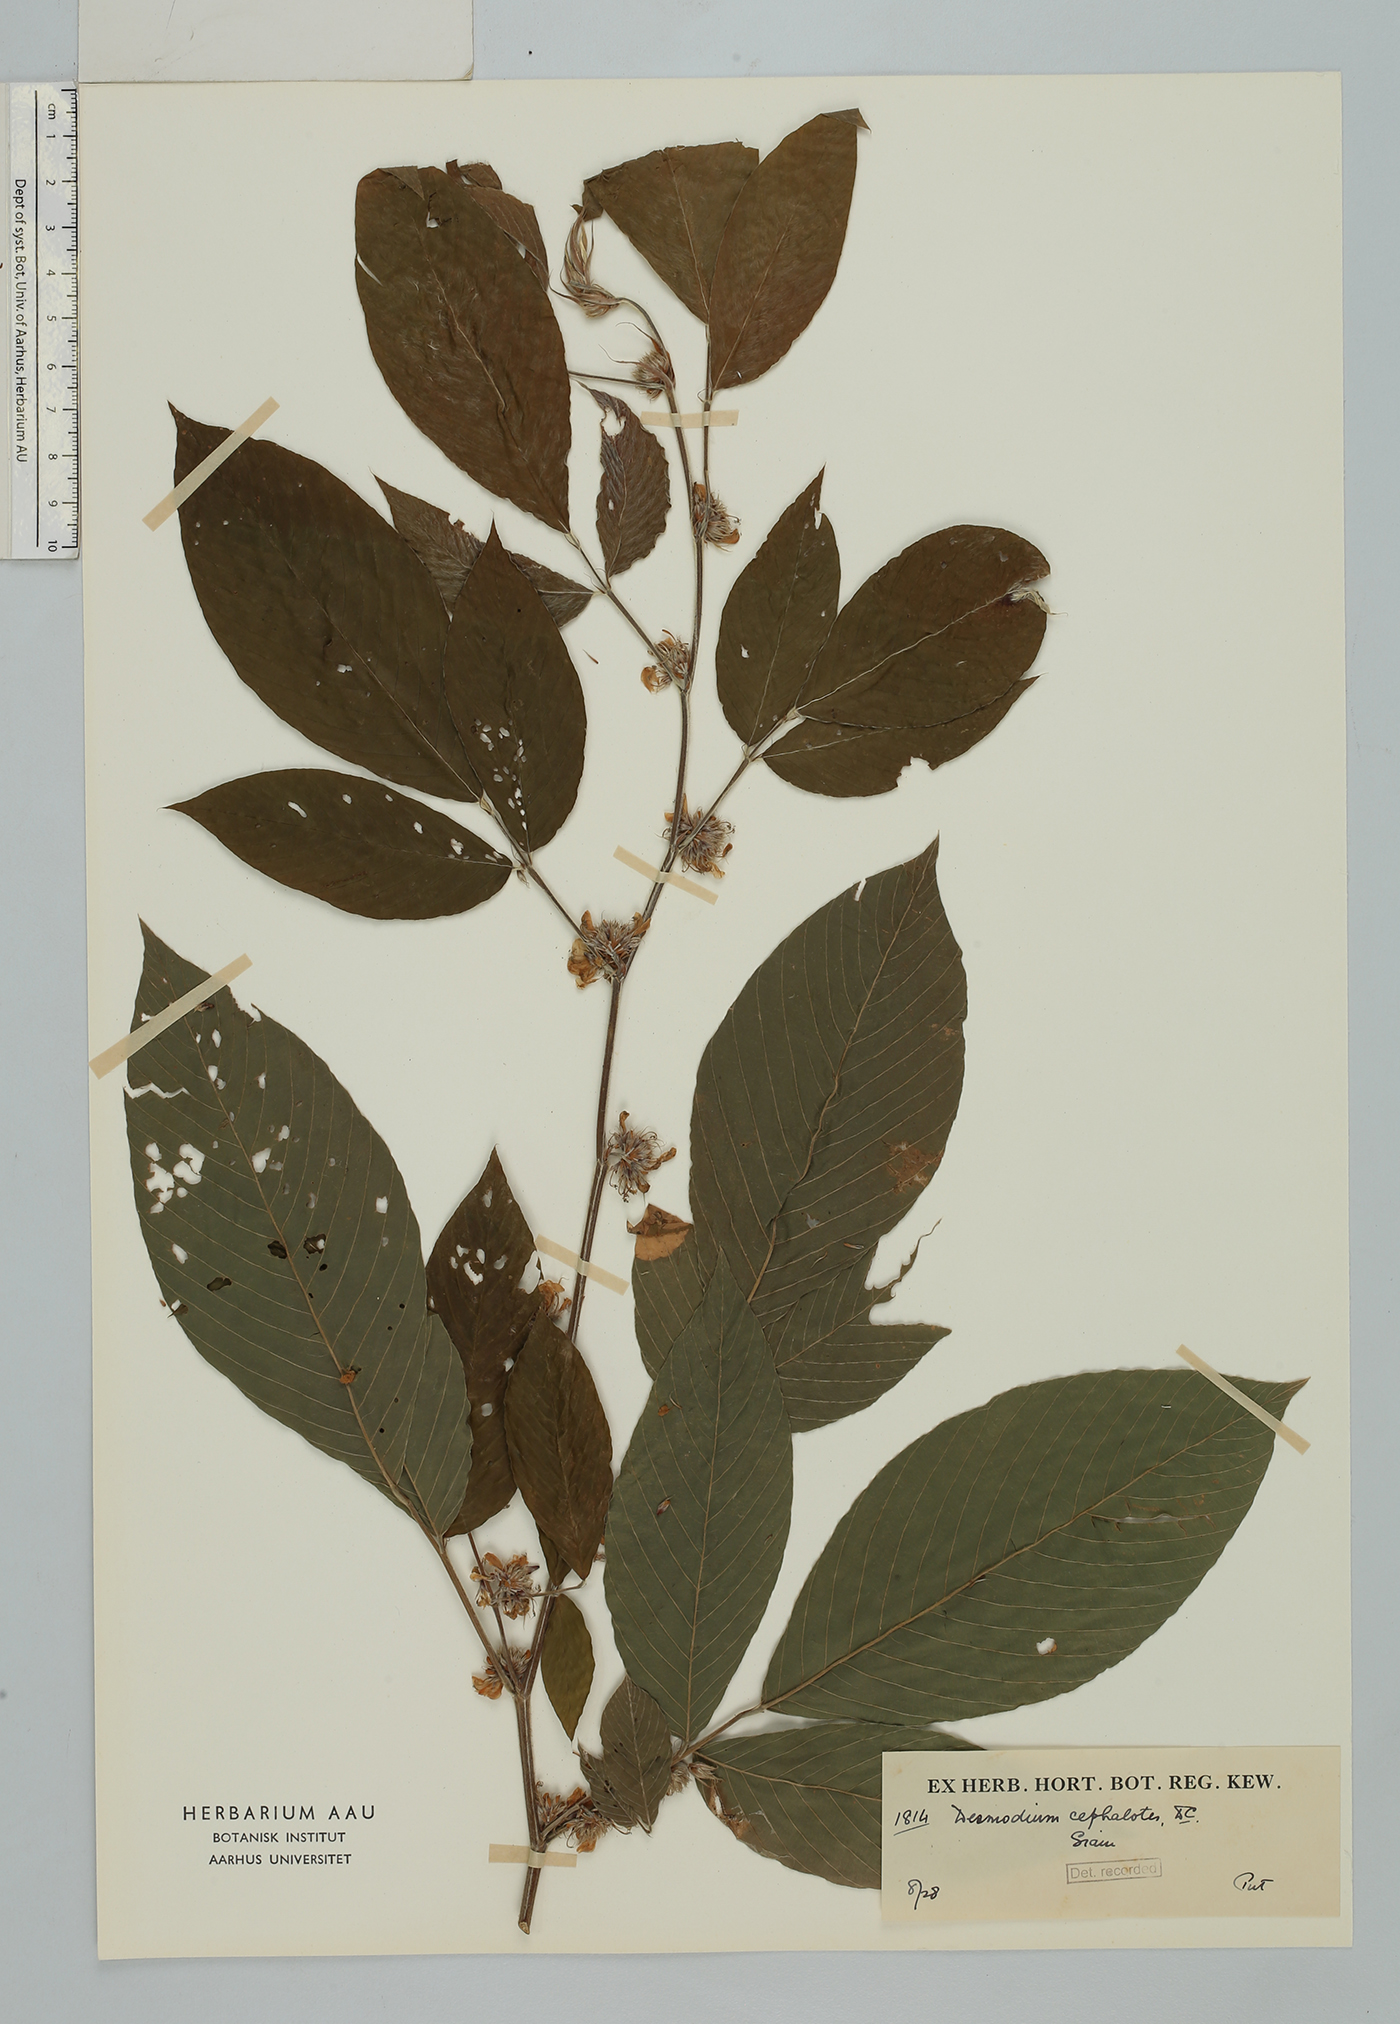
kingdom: Plantae
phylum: Tracheophyta
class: Magnoliopsida
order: Fabales
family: Fabaceae
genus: Dendrolobium
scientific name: Dendrolobium triangulare
